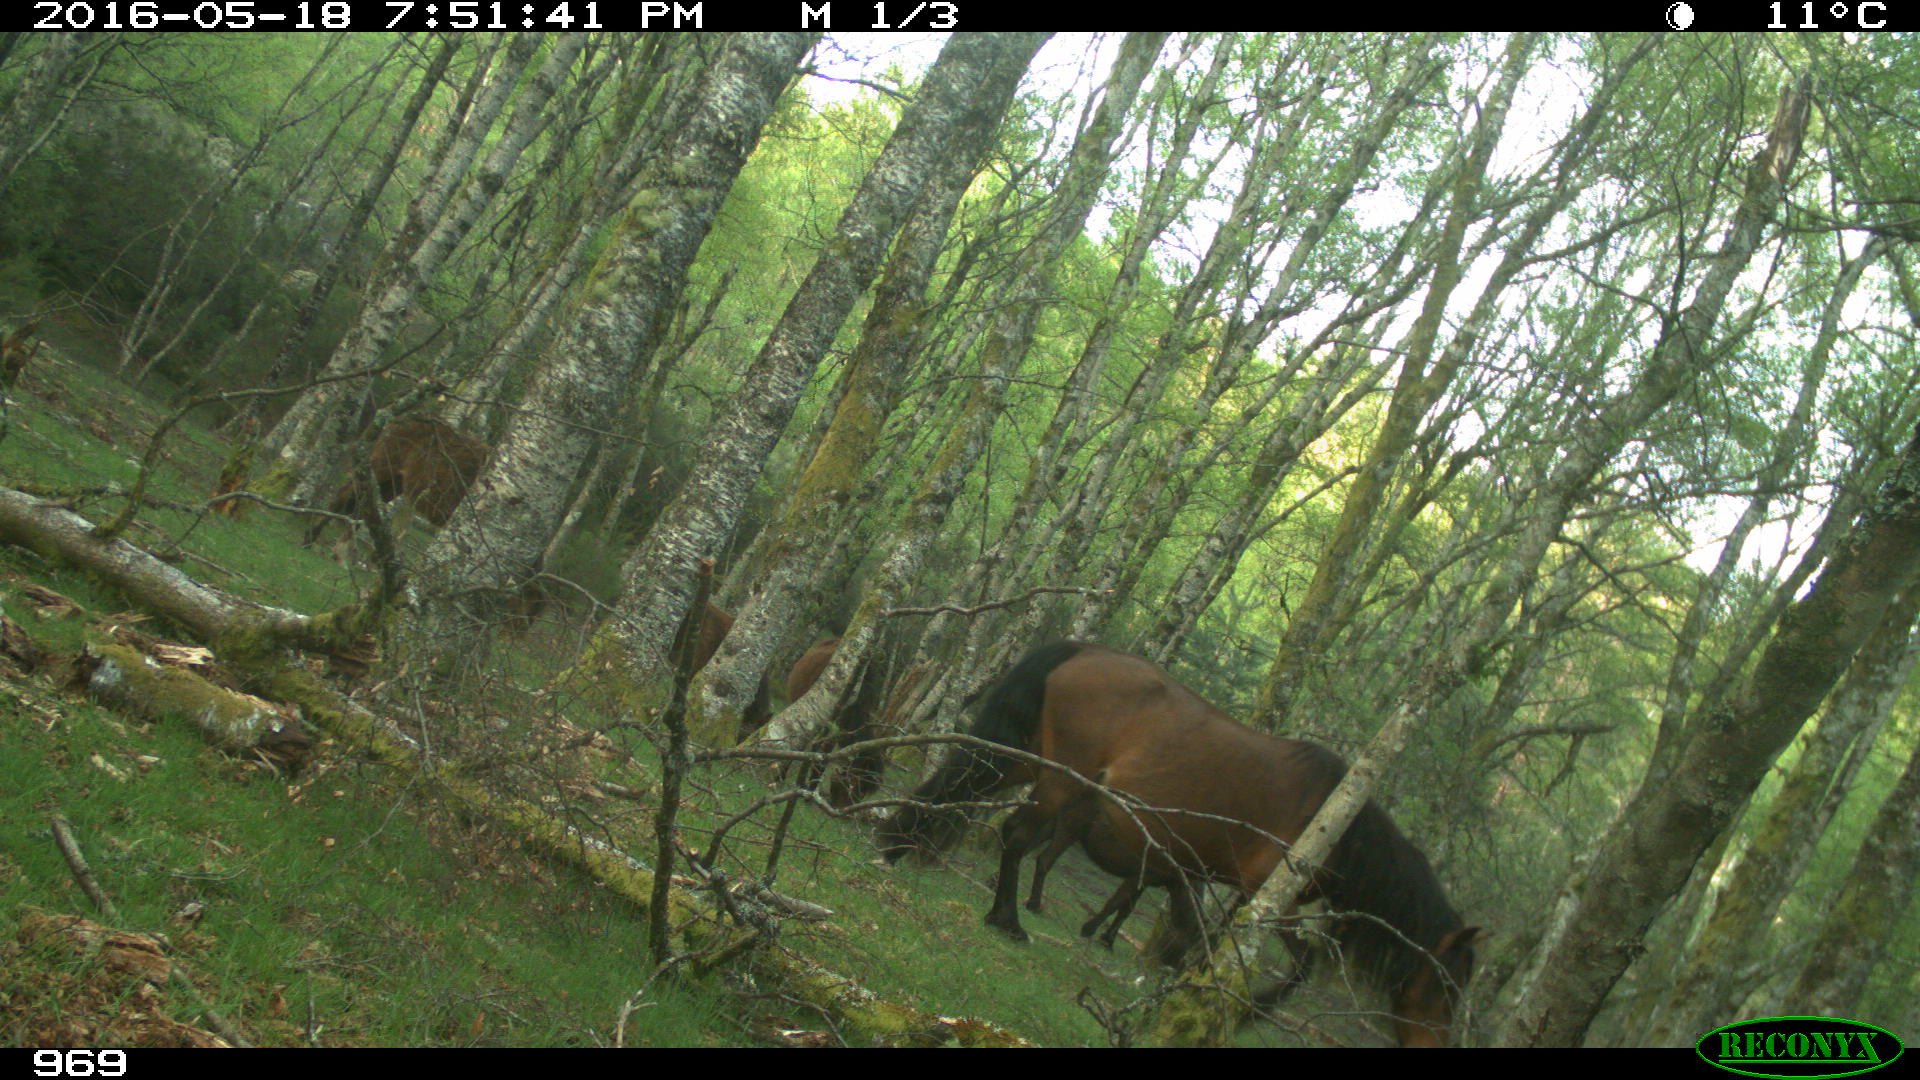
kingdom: Animalia
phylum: Chordata
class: Mammalia
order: Perissodactyla
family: Equidae
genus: Equus
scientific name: Equus caballus
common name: Horse
